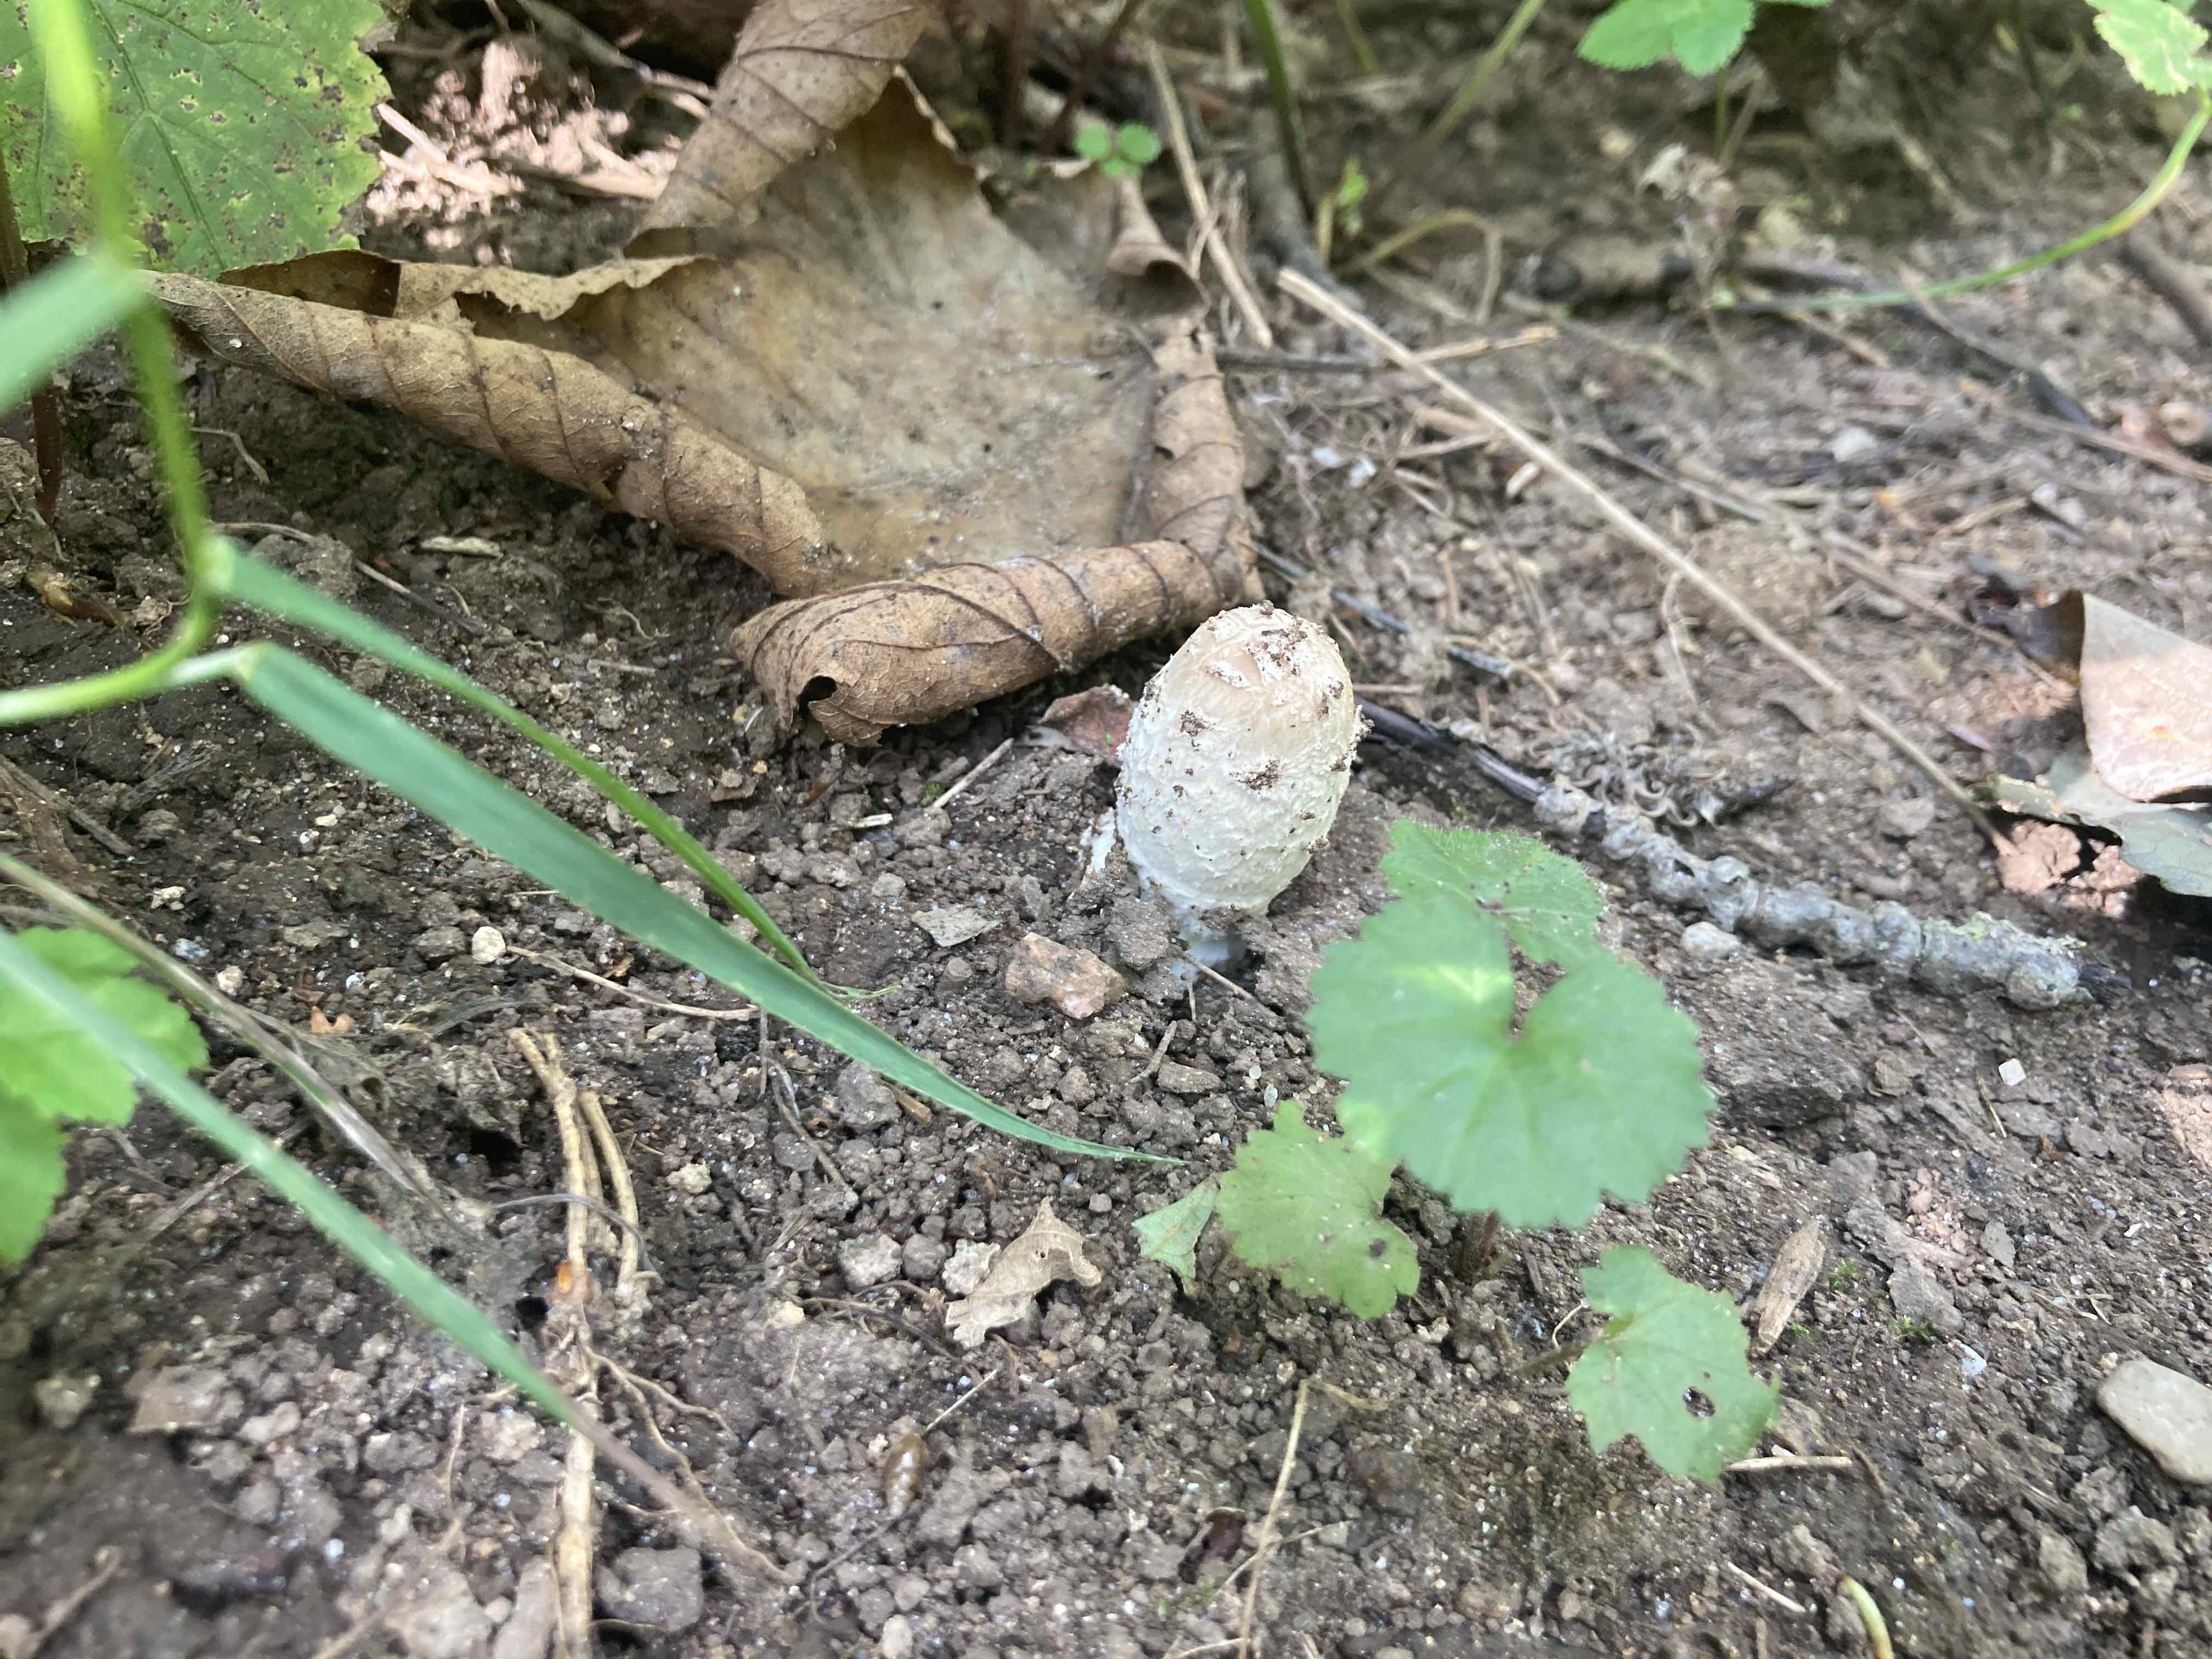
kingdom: Fungi
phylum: Basidiomycota
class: Agaricomycetes
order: Agaricales
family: Agaricaceae
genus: Coprinus
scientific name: Coprinus comatus
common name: stor parykhat
